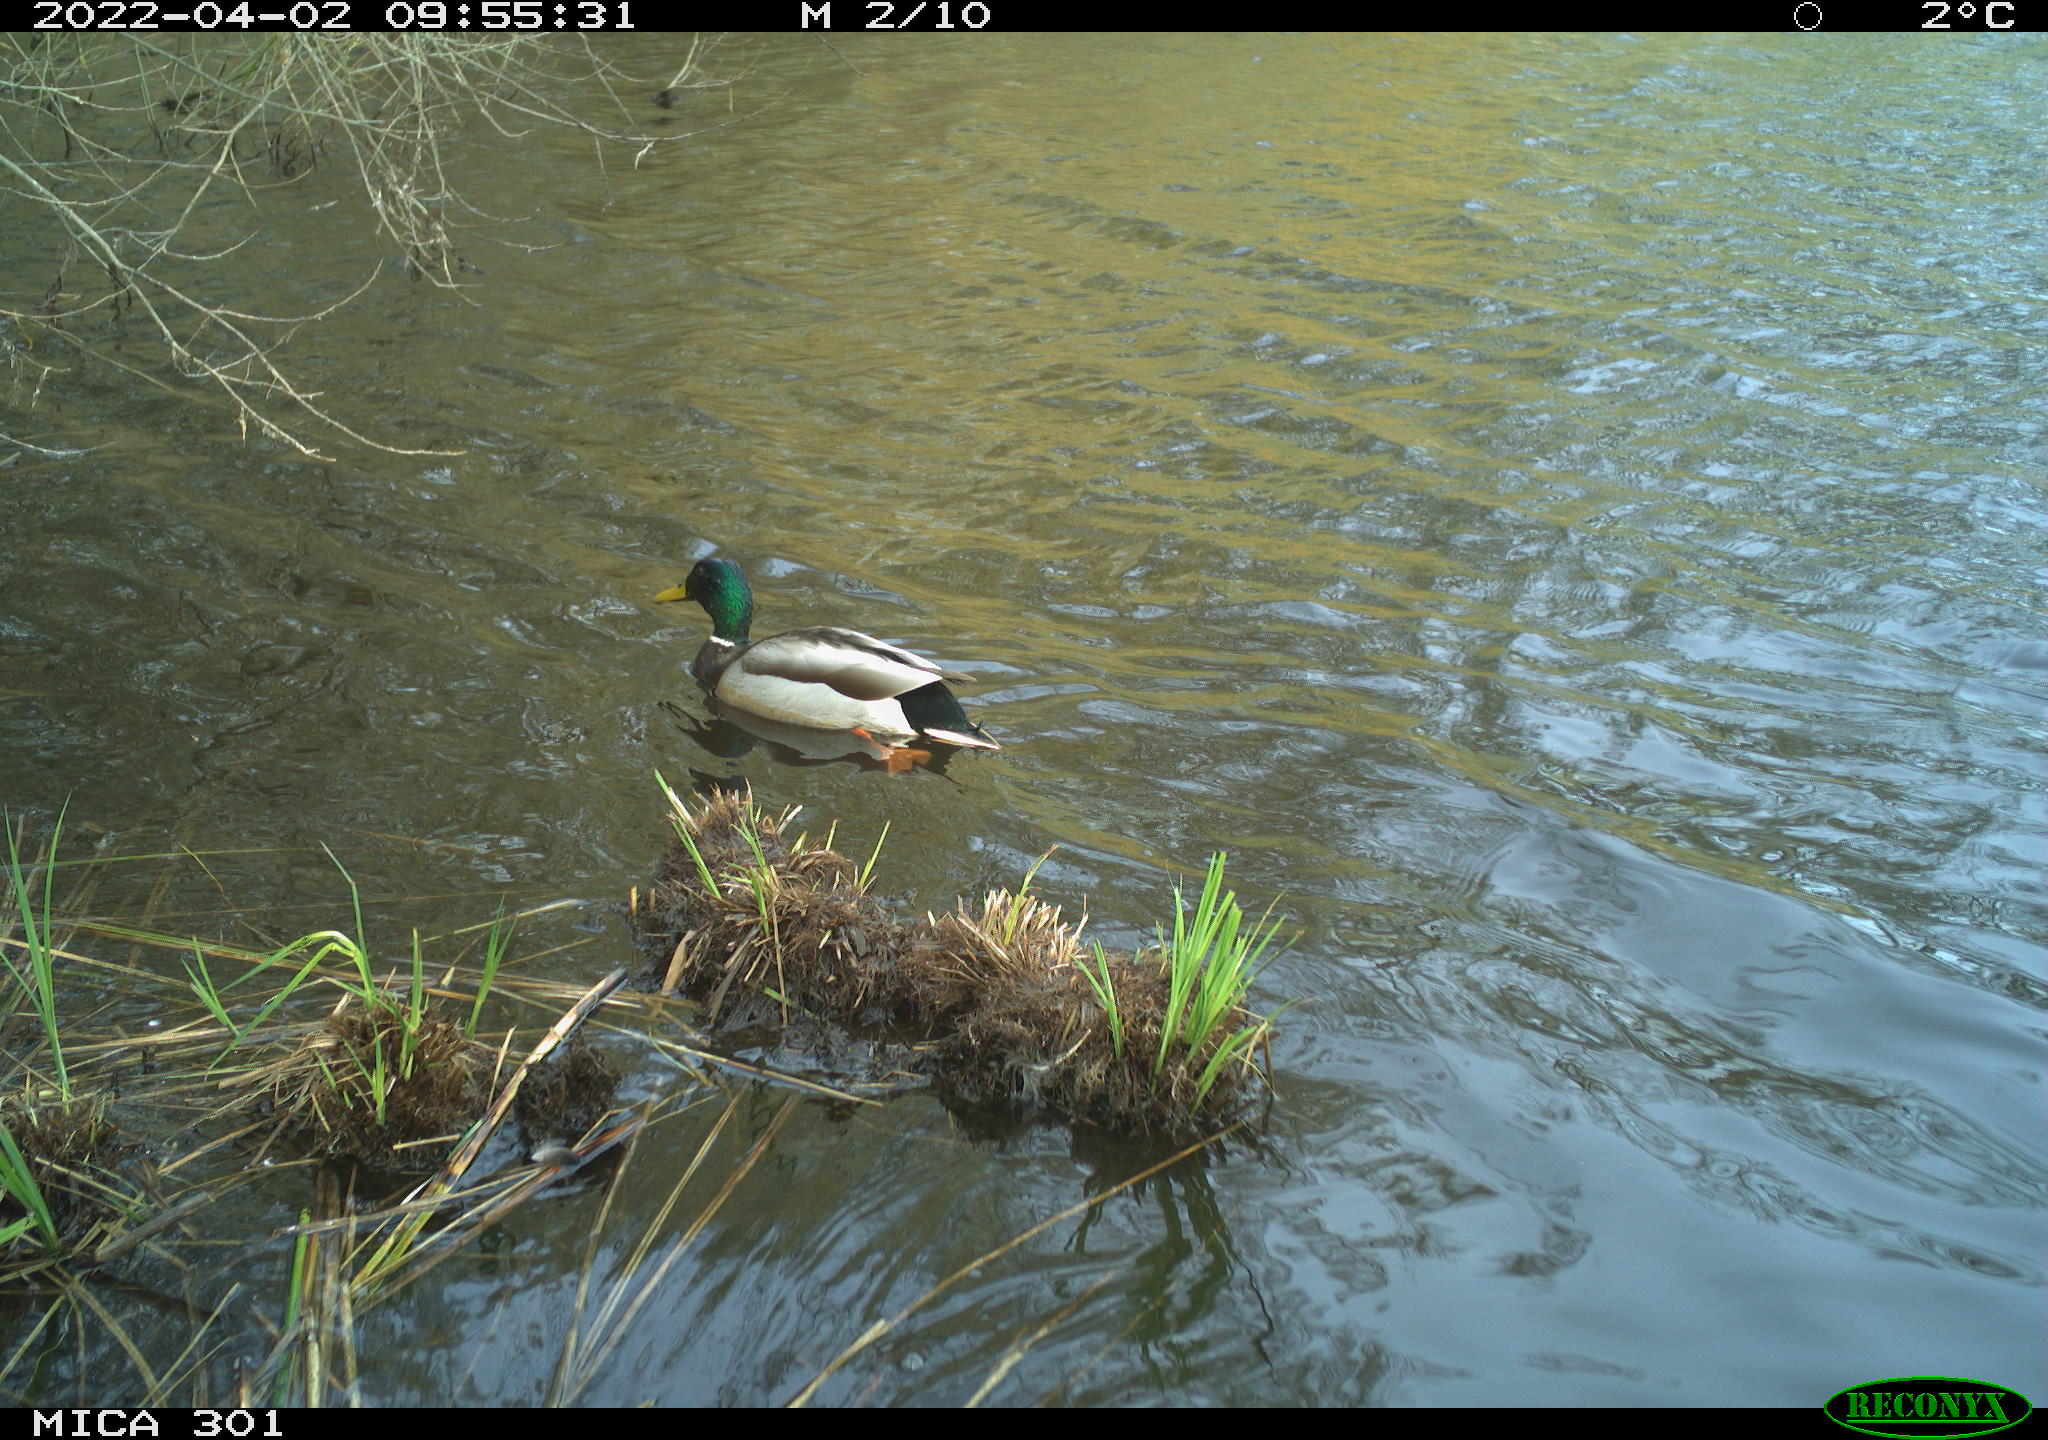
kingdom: Animalia
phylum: Chordata
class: Aves
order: Anseriformes
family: Anatidae
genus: Anas
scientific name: Anas platyrhynchos
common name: Mallard
